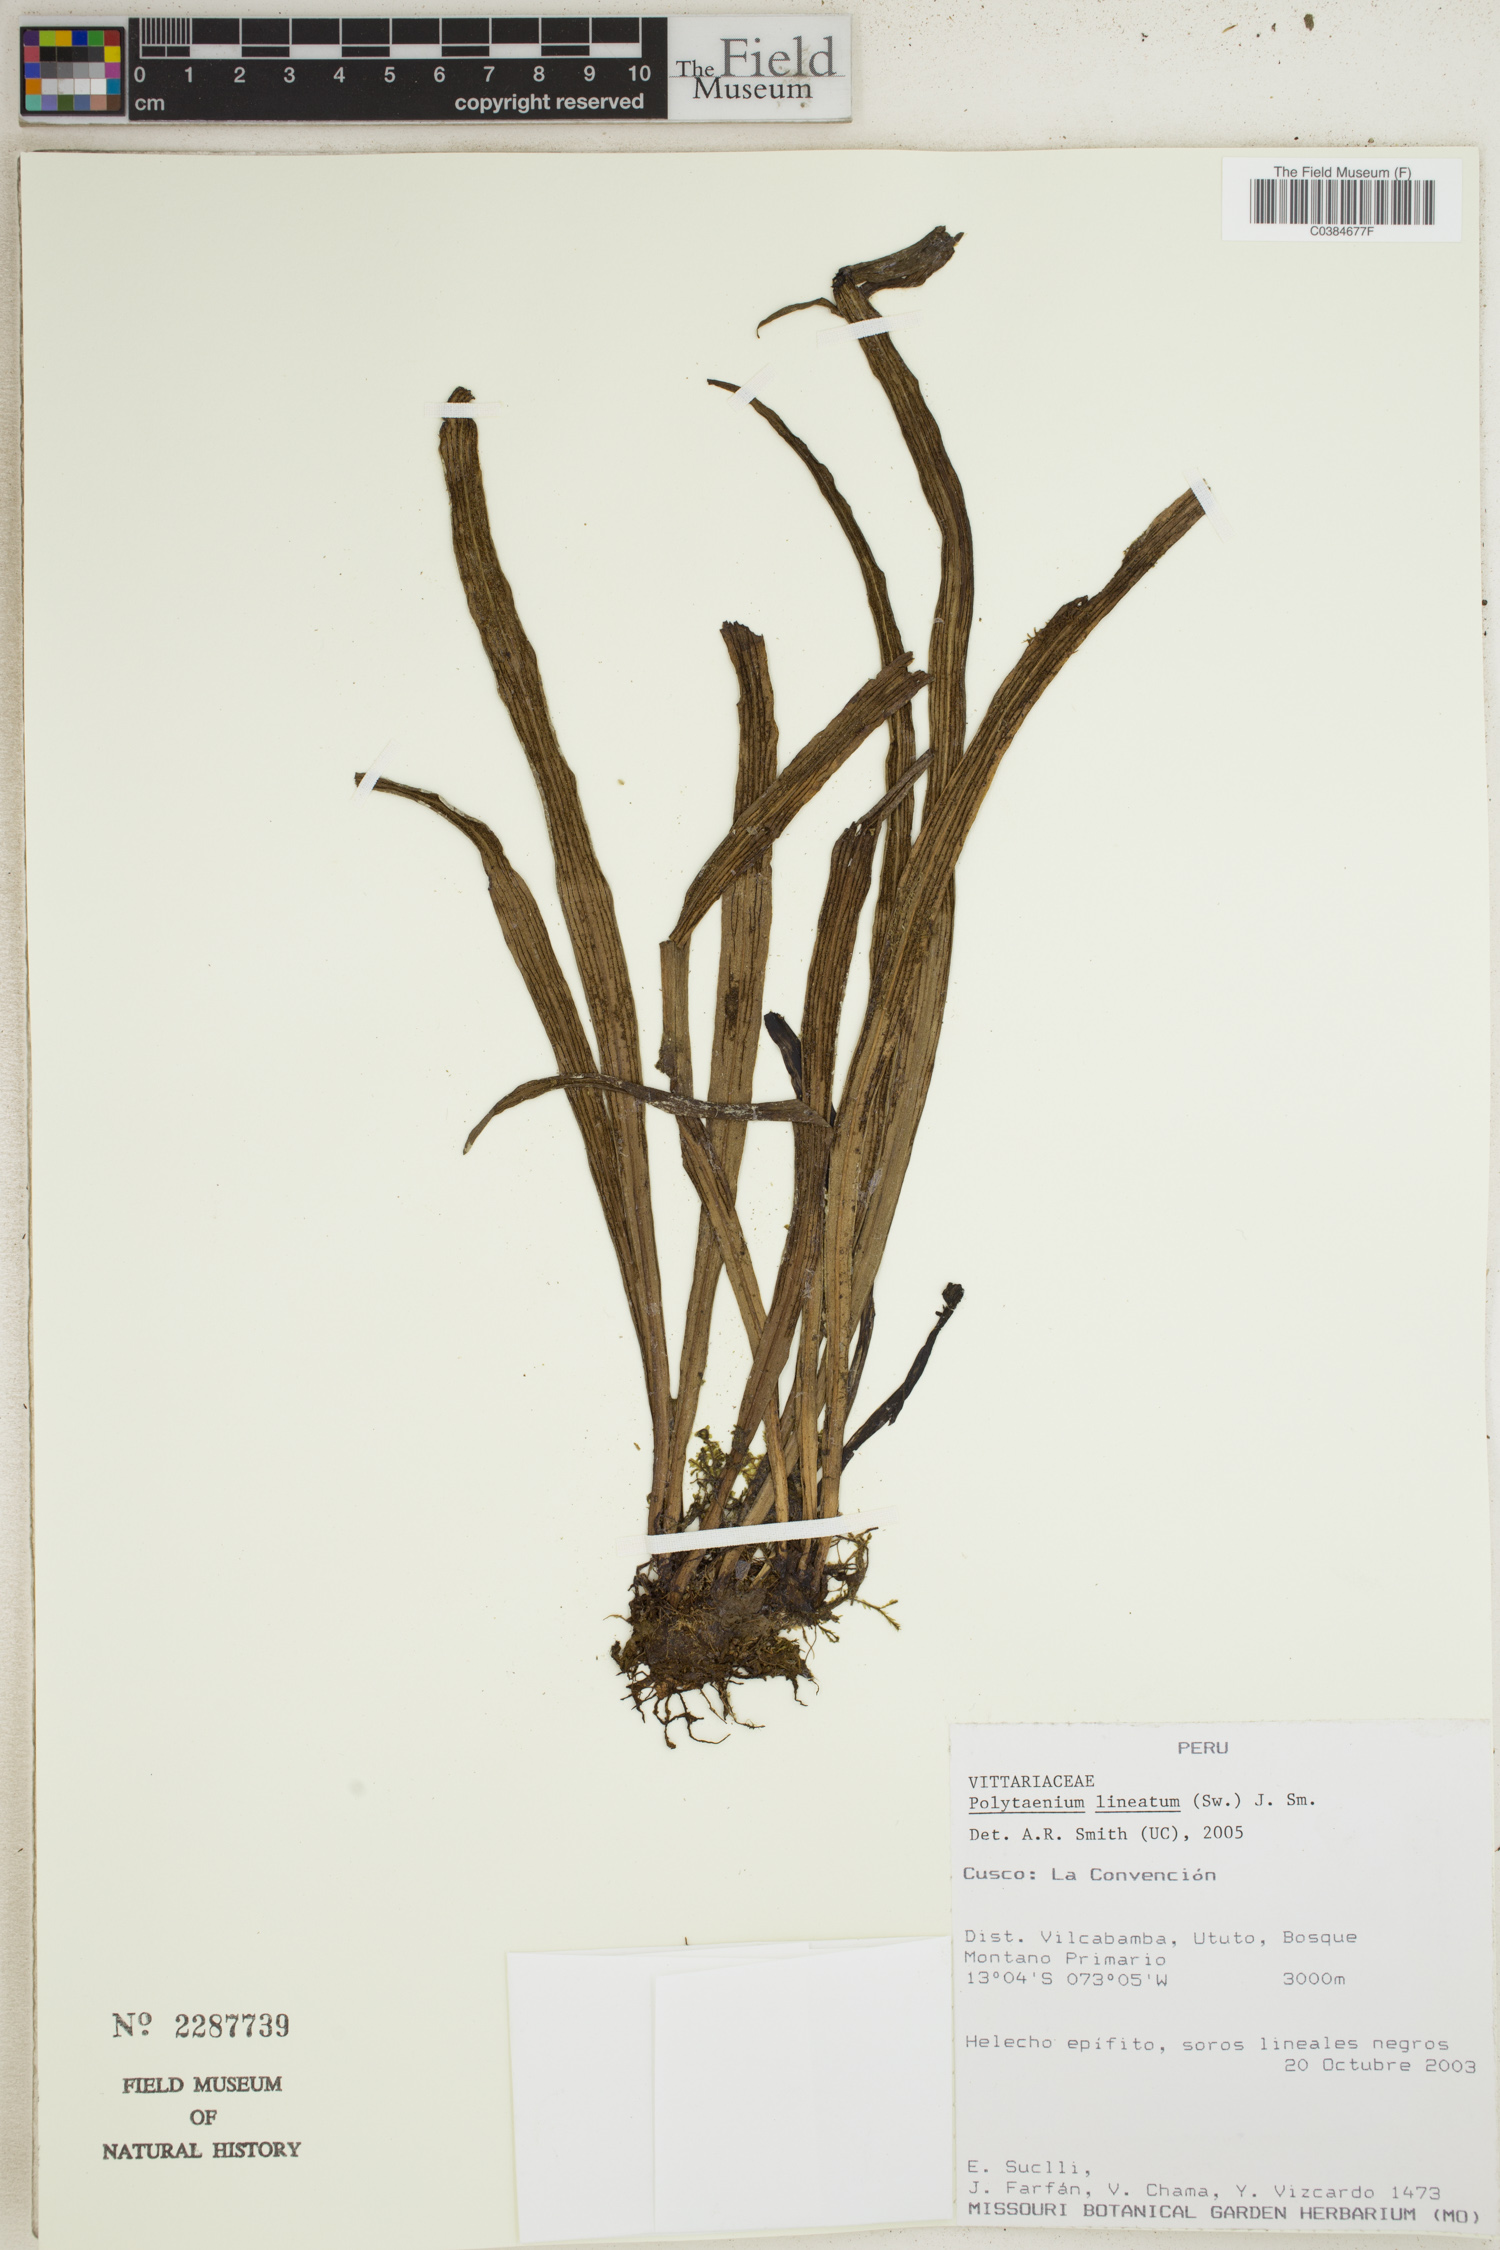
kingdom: Plantae
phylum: Tracheophyta
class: Polypodiopsida
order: Polypodiales
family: Pteridaceae
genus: Polytaenium
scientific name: Polytaenium lineatum
